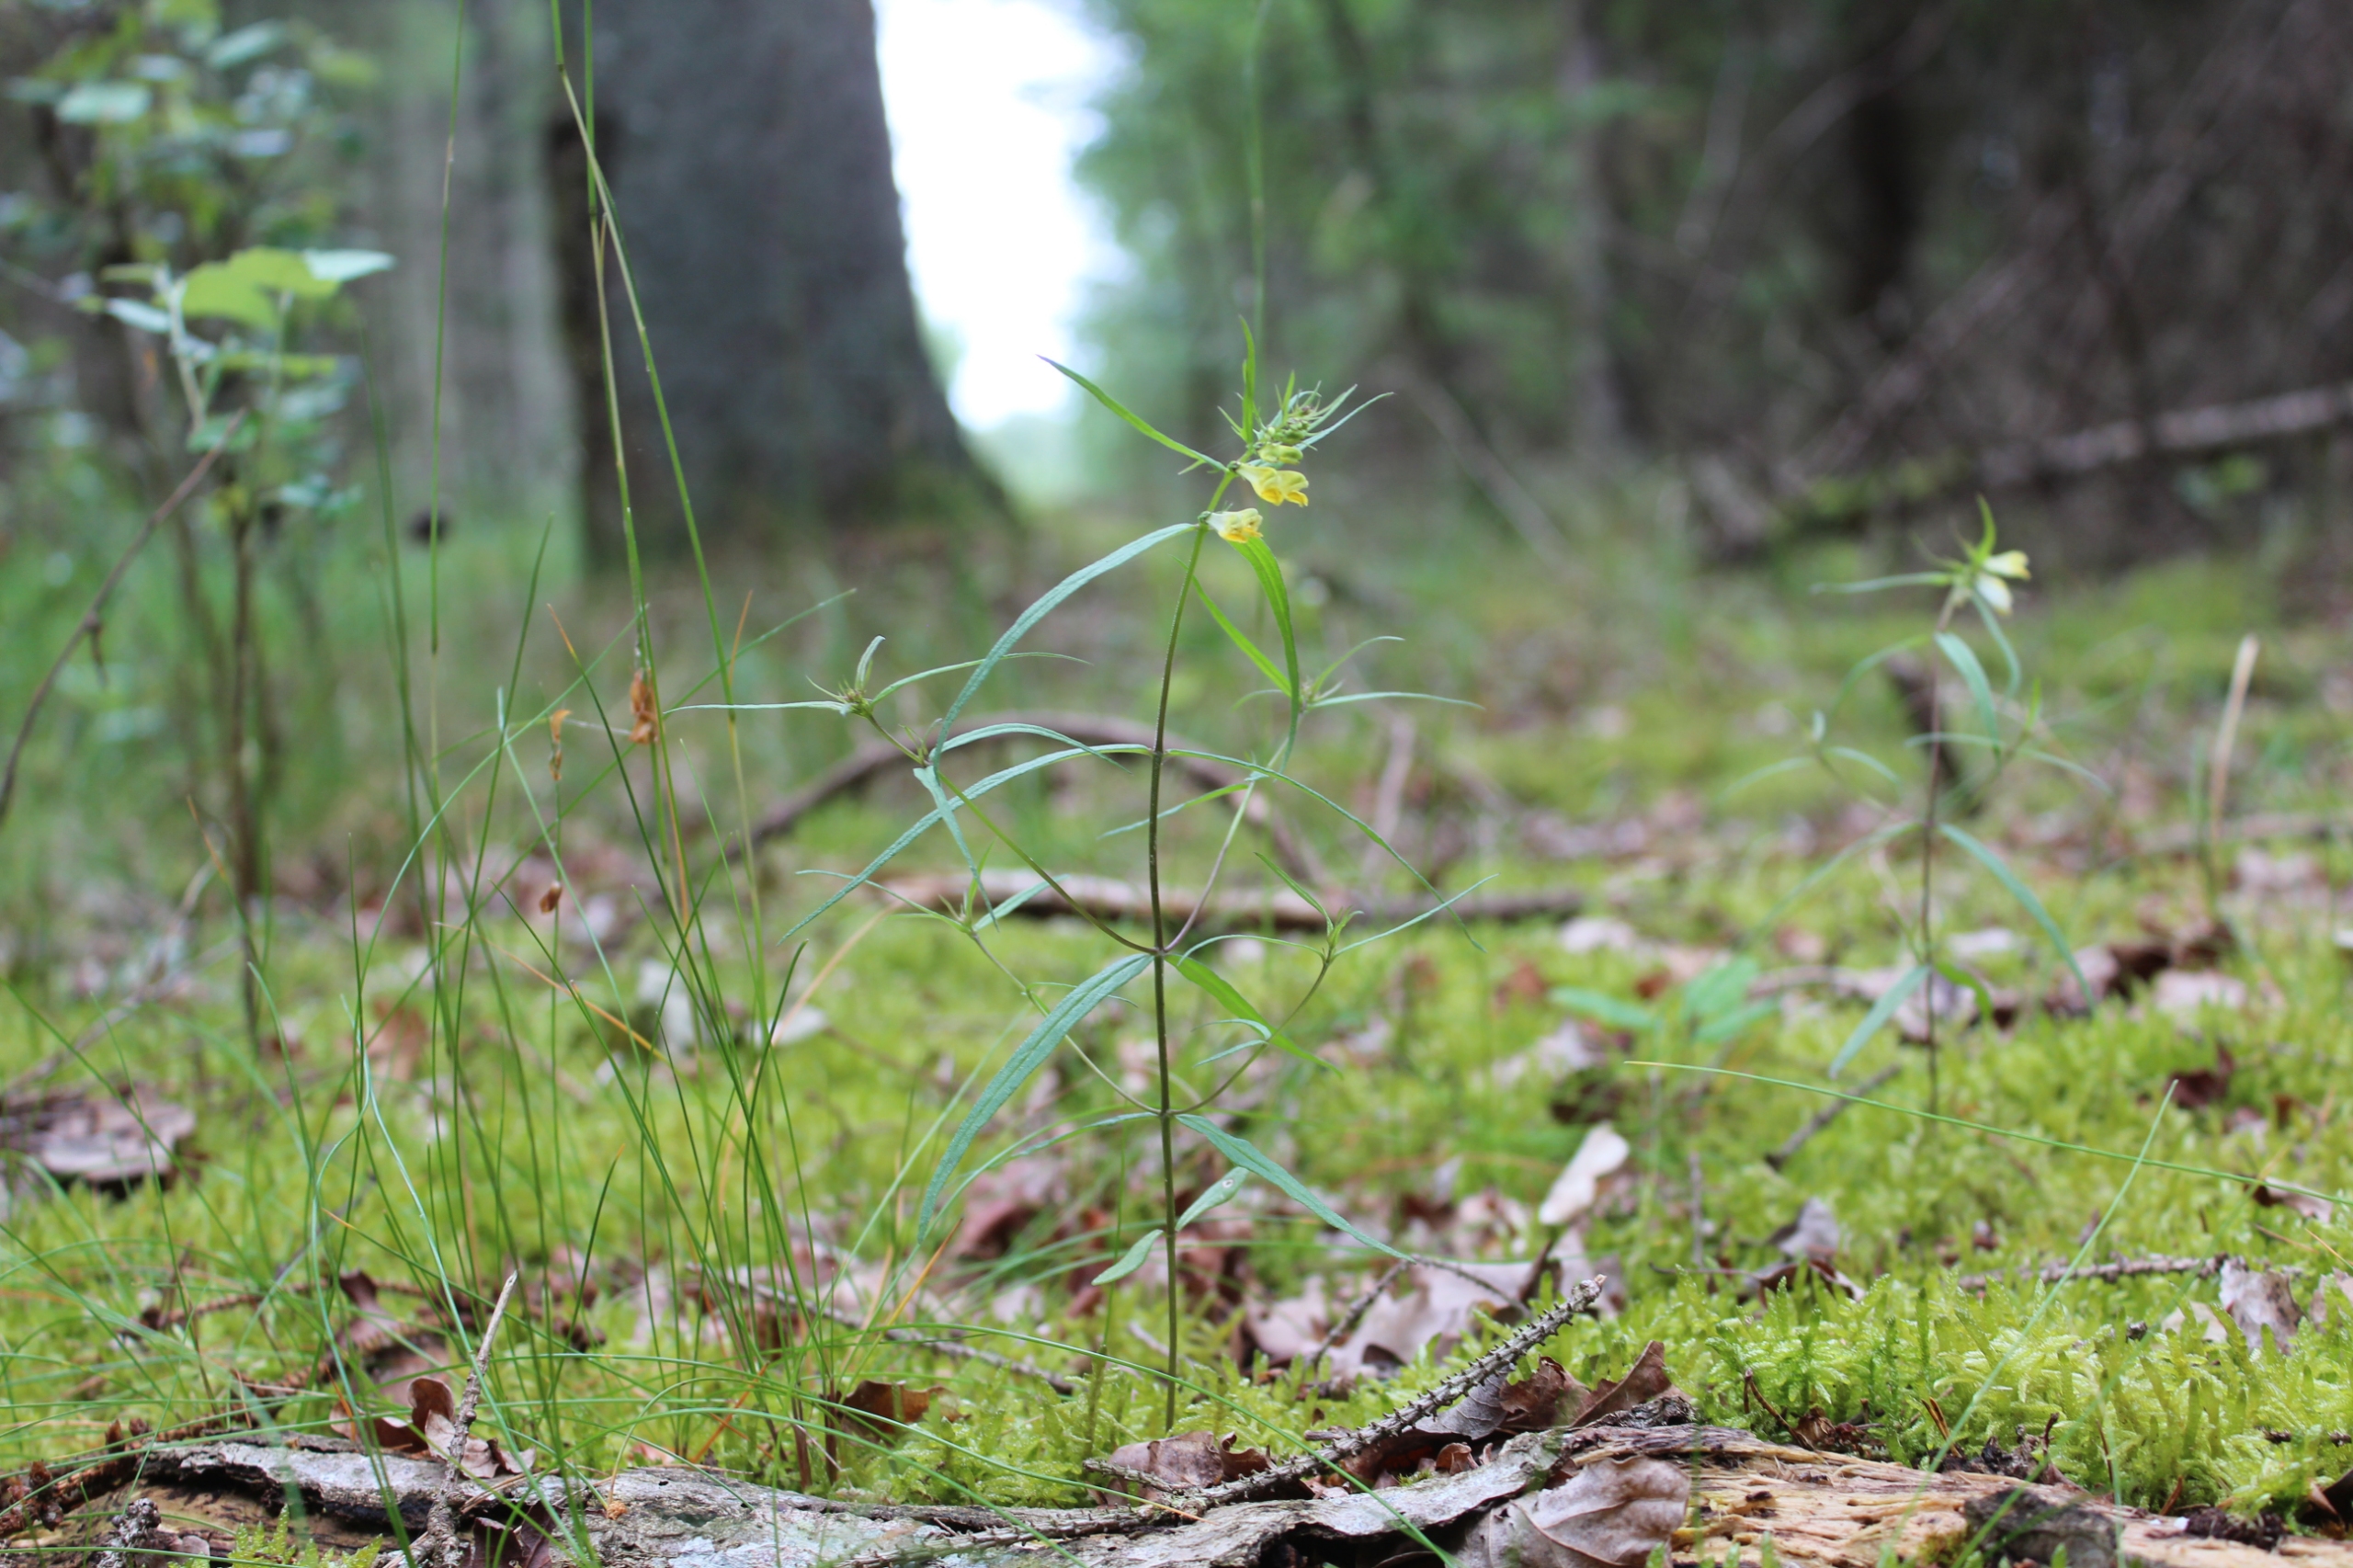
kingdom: Plantae
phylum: Tracheophyta
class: Magnoliopsida
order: Lamiales
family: Orobanchaceae
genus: Melampyrum
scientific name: Melampyrum pratense
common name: Almindelig kohvede
